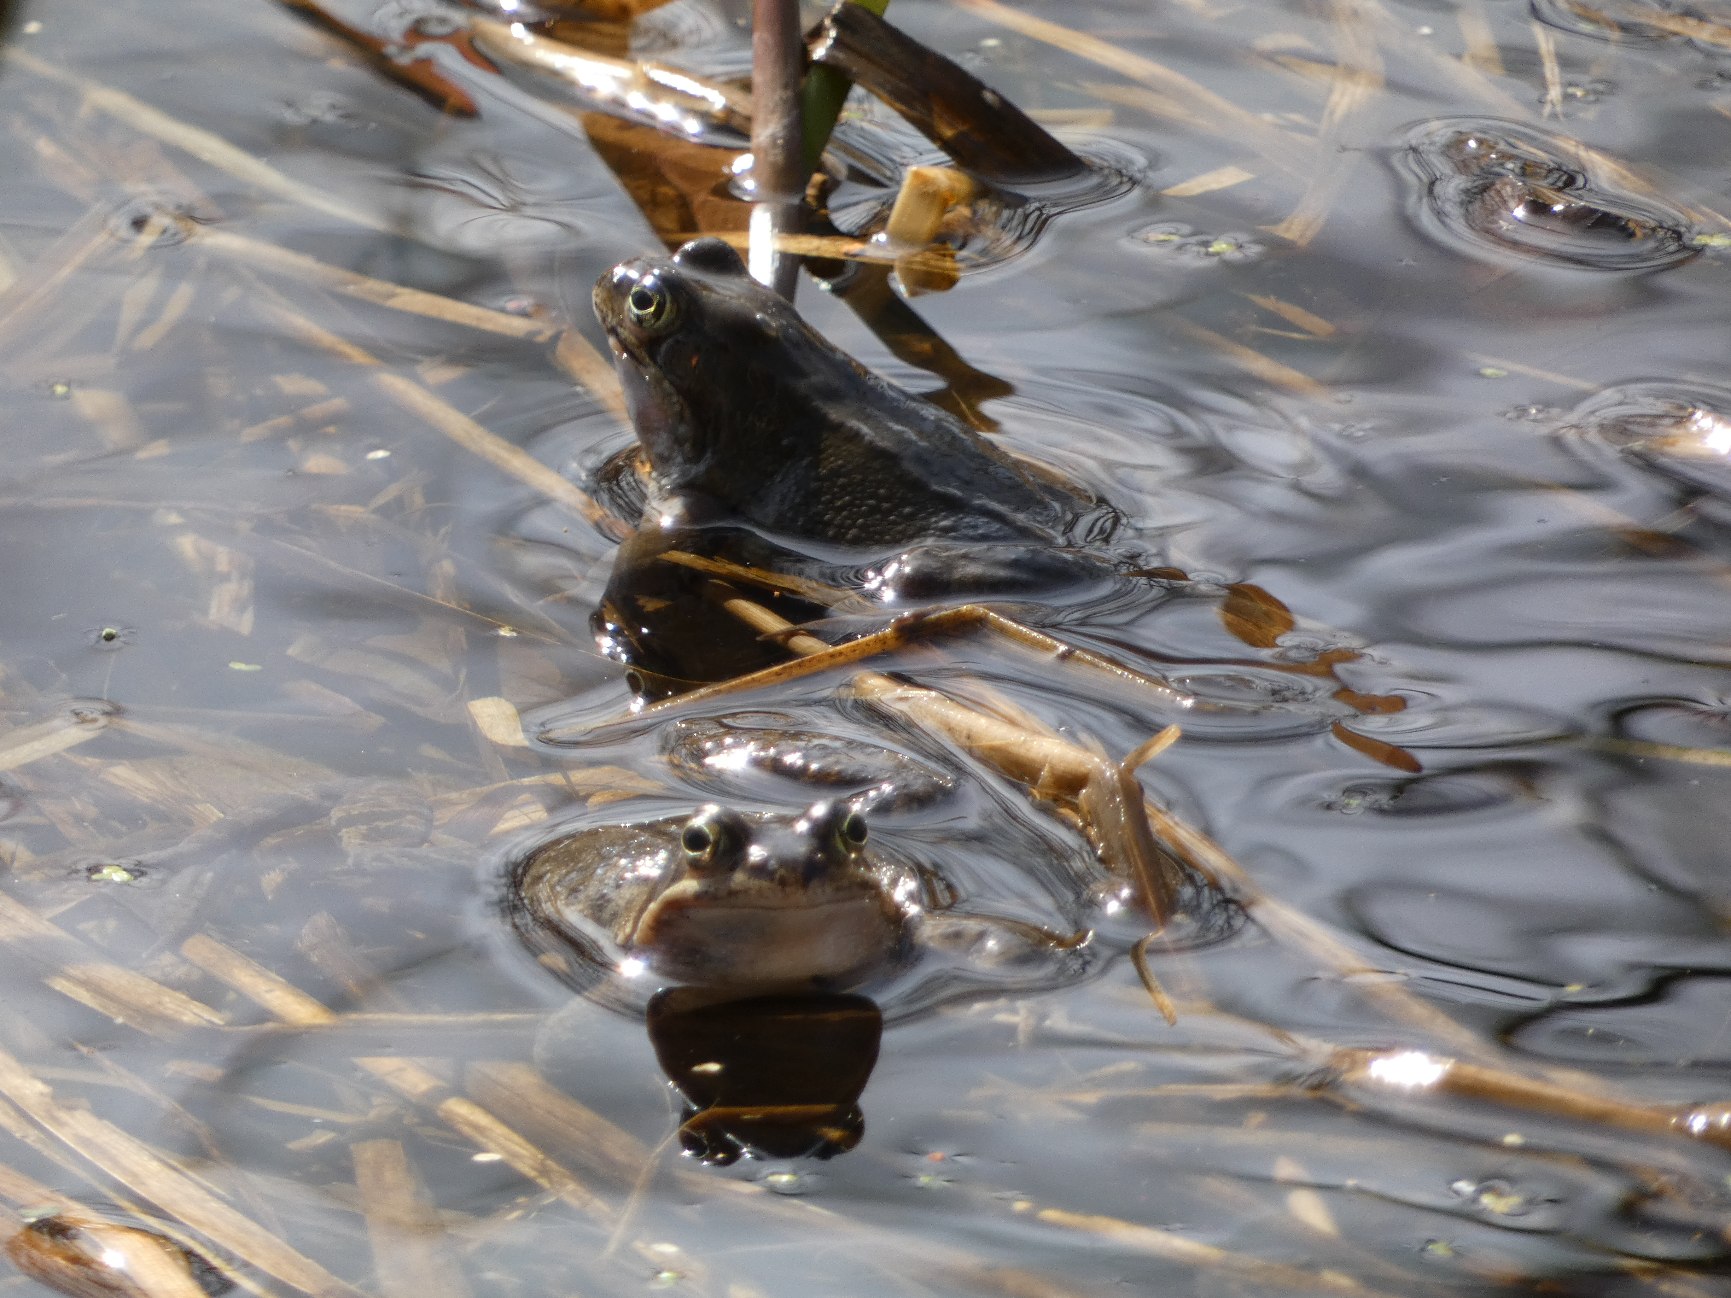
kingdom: Animalia
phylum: Chordata
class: Amphibia
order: Anura
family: Ranidae
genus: Rana
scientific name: Rana temporaria
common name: Butsnudet frø
